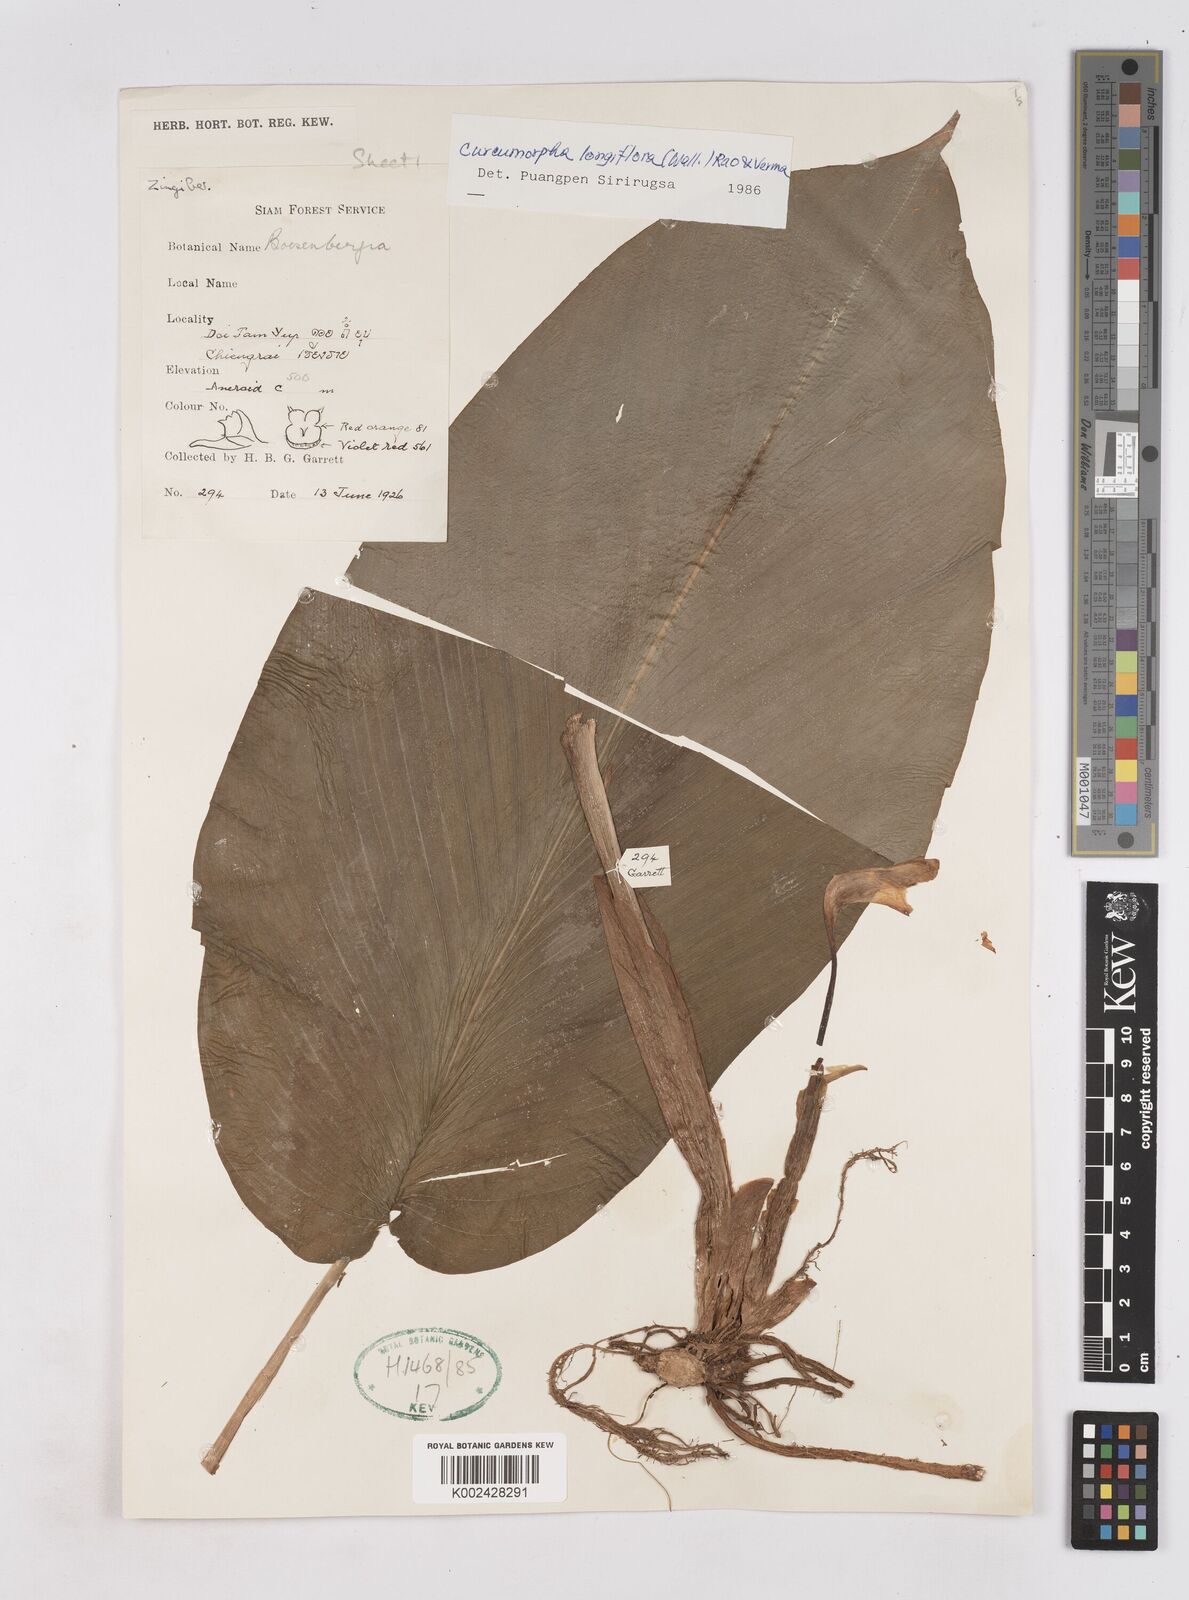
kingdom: Plantae
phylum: Tracheophyta
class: Liliopsida
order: Zingiberales
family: Zingiberaceae
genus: Boesenbergia
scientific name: Boesenbergia longiflora
